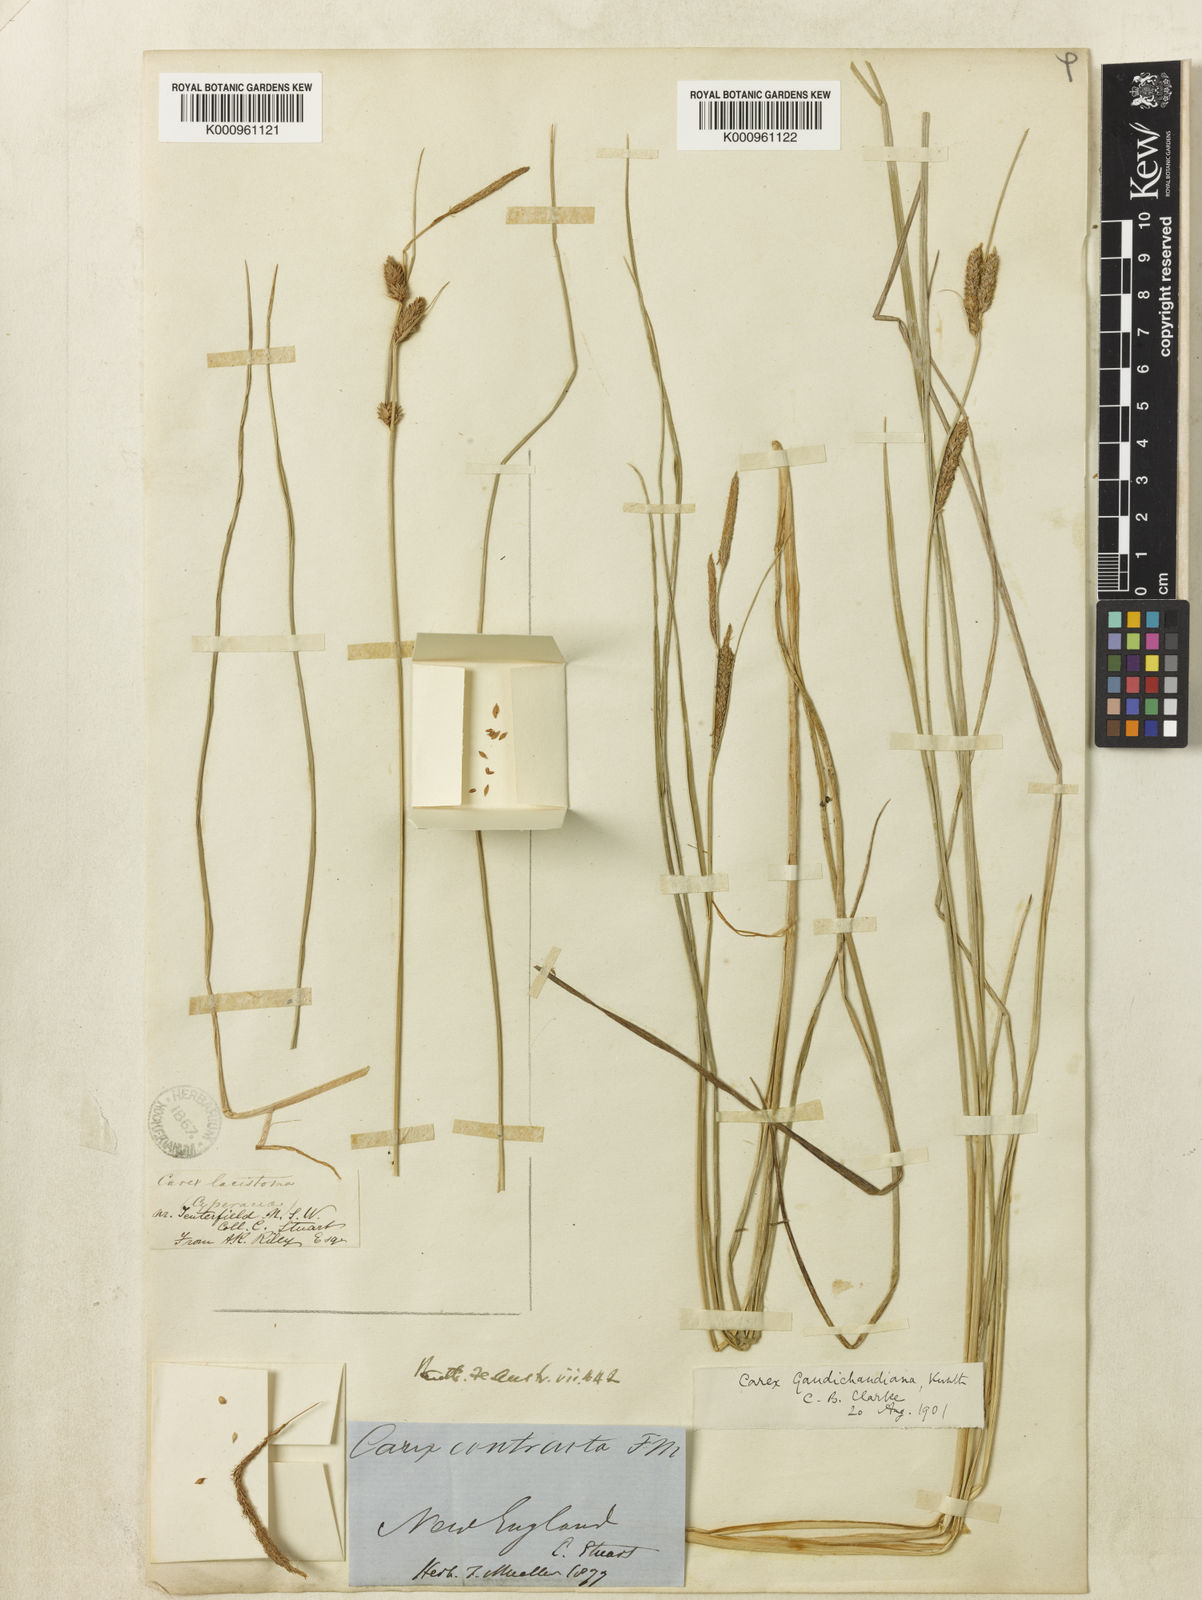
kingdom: Plantae
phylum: Tracheophyta
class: Liliopsida
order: Poales
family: Cyperaceae
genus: Carex
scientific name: Carex gaudichaudiana
